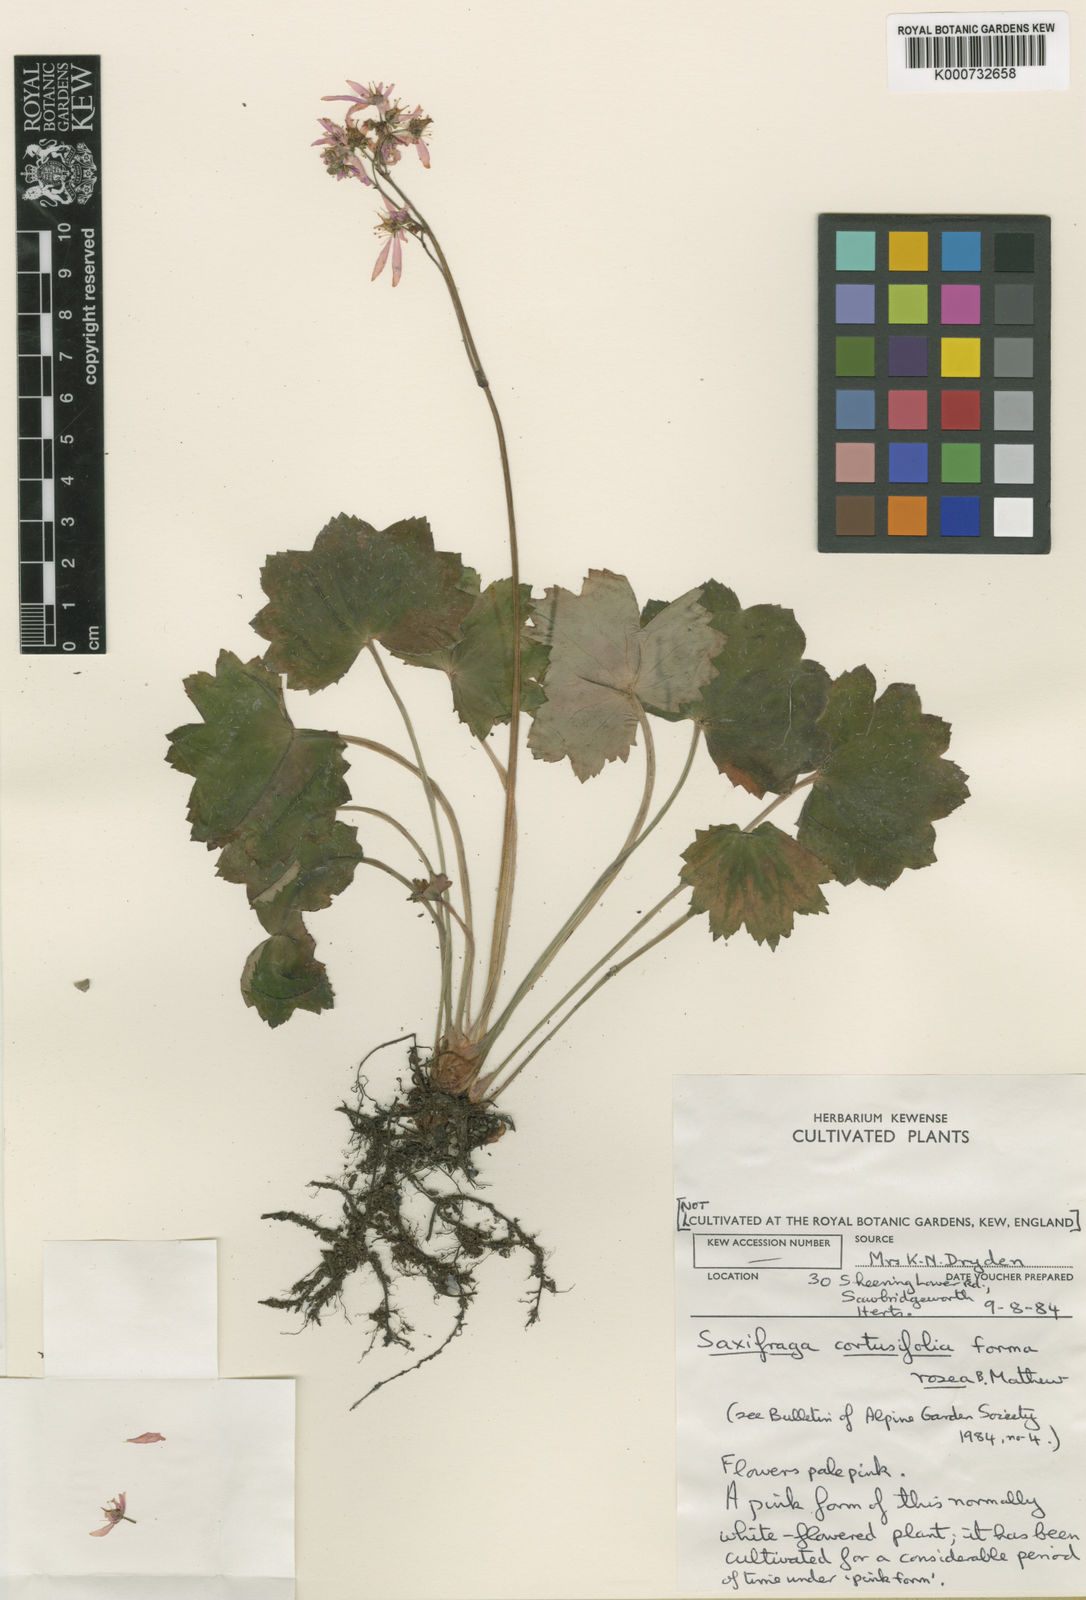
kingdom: Plantae
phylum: Tracheophyta
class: Magnoliopsida
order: Saxifragales
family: Saxifragaceae
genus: Saxifraga
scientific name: Saxifraga cuneifolia
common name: Lesser londonpride
